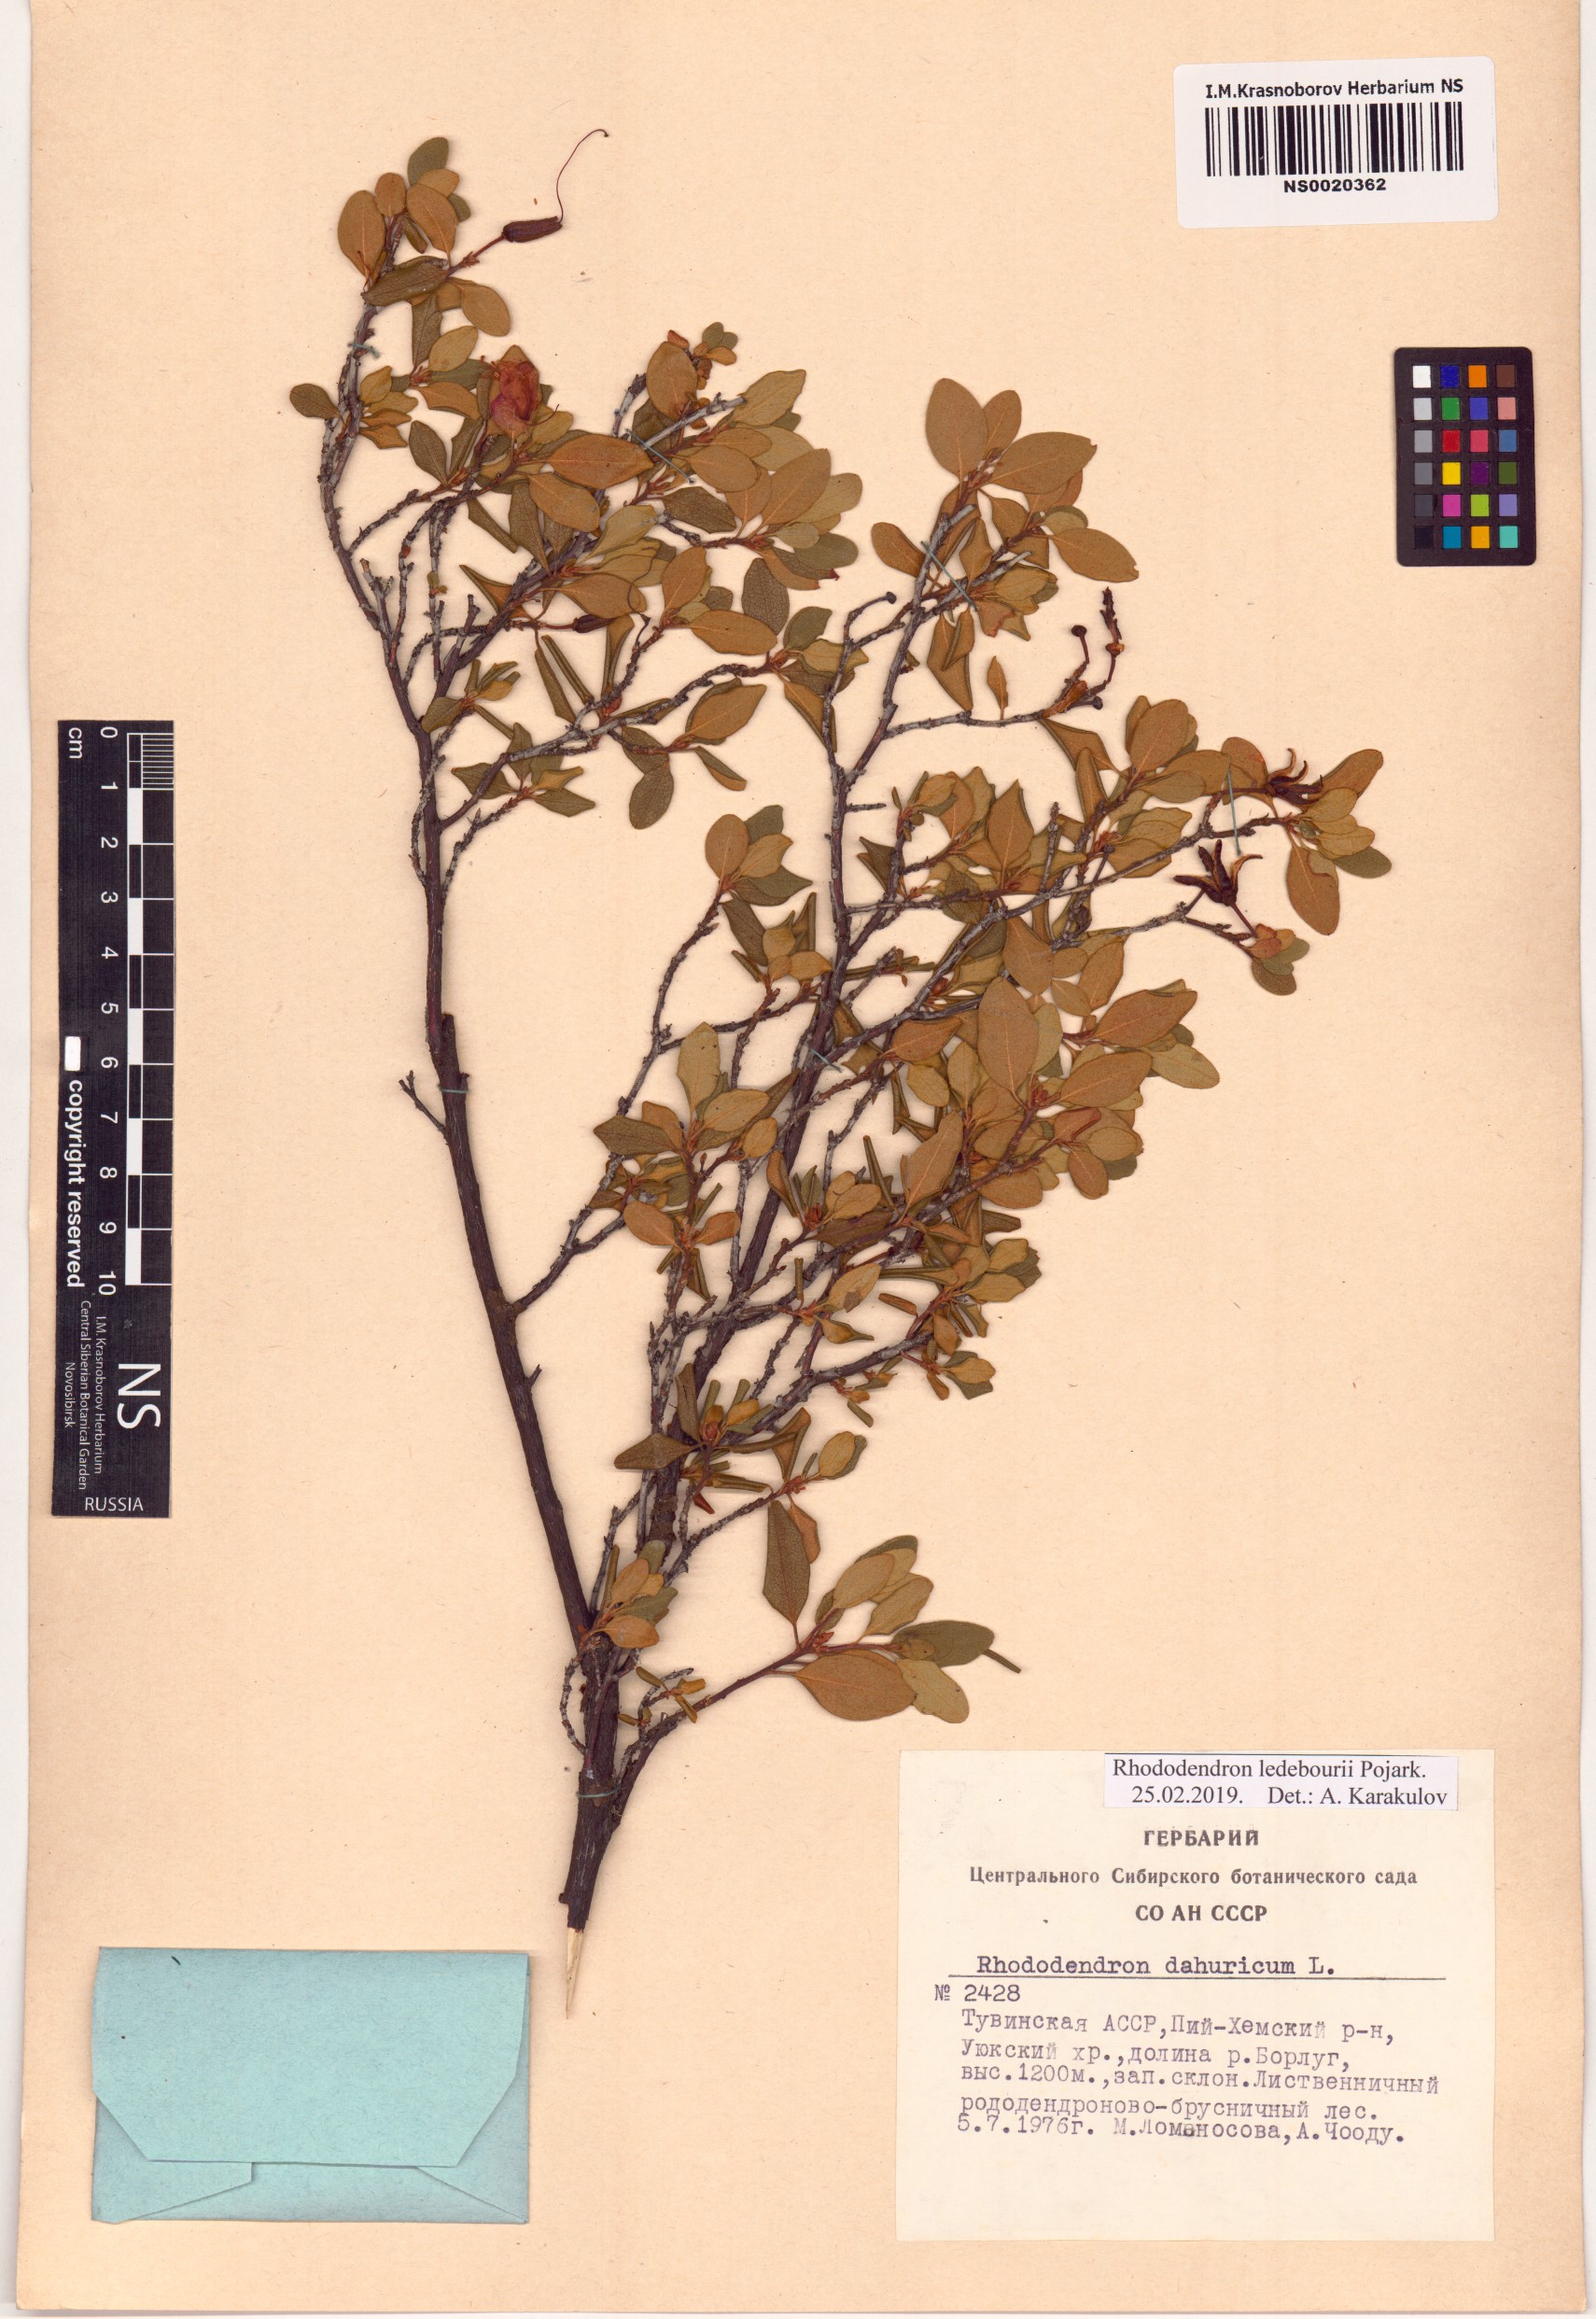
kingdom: Plantae
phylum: Tracheophyta
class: Magnoliopsida
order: Ericales
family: Ericaceae
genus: Rhododendron
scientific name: Rhododendron dauricum
